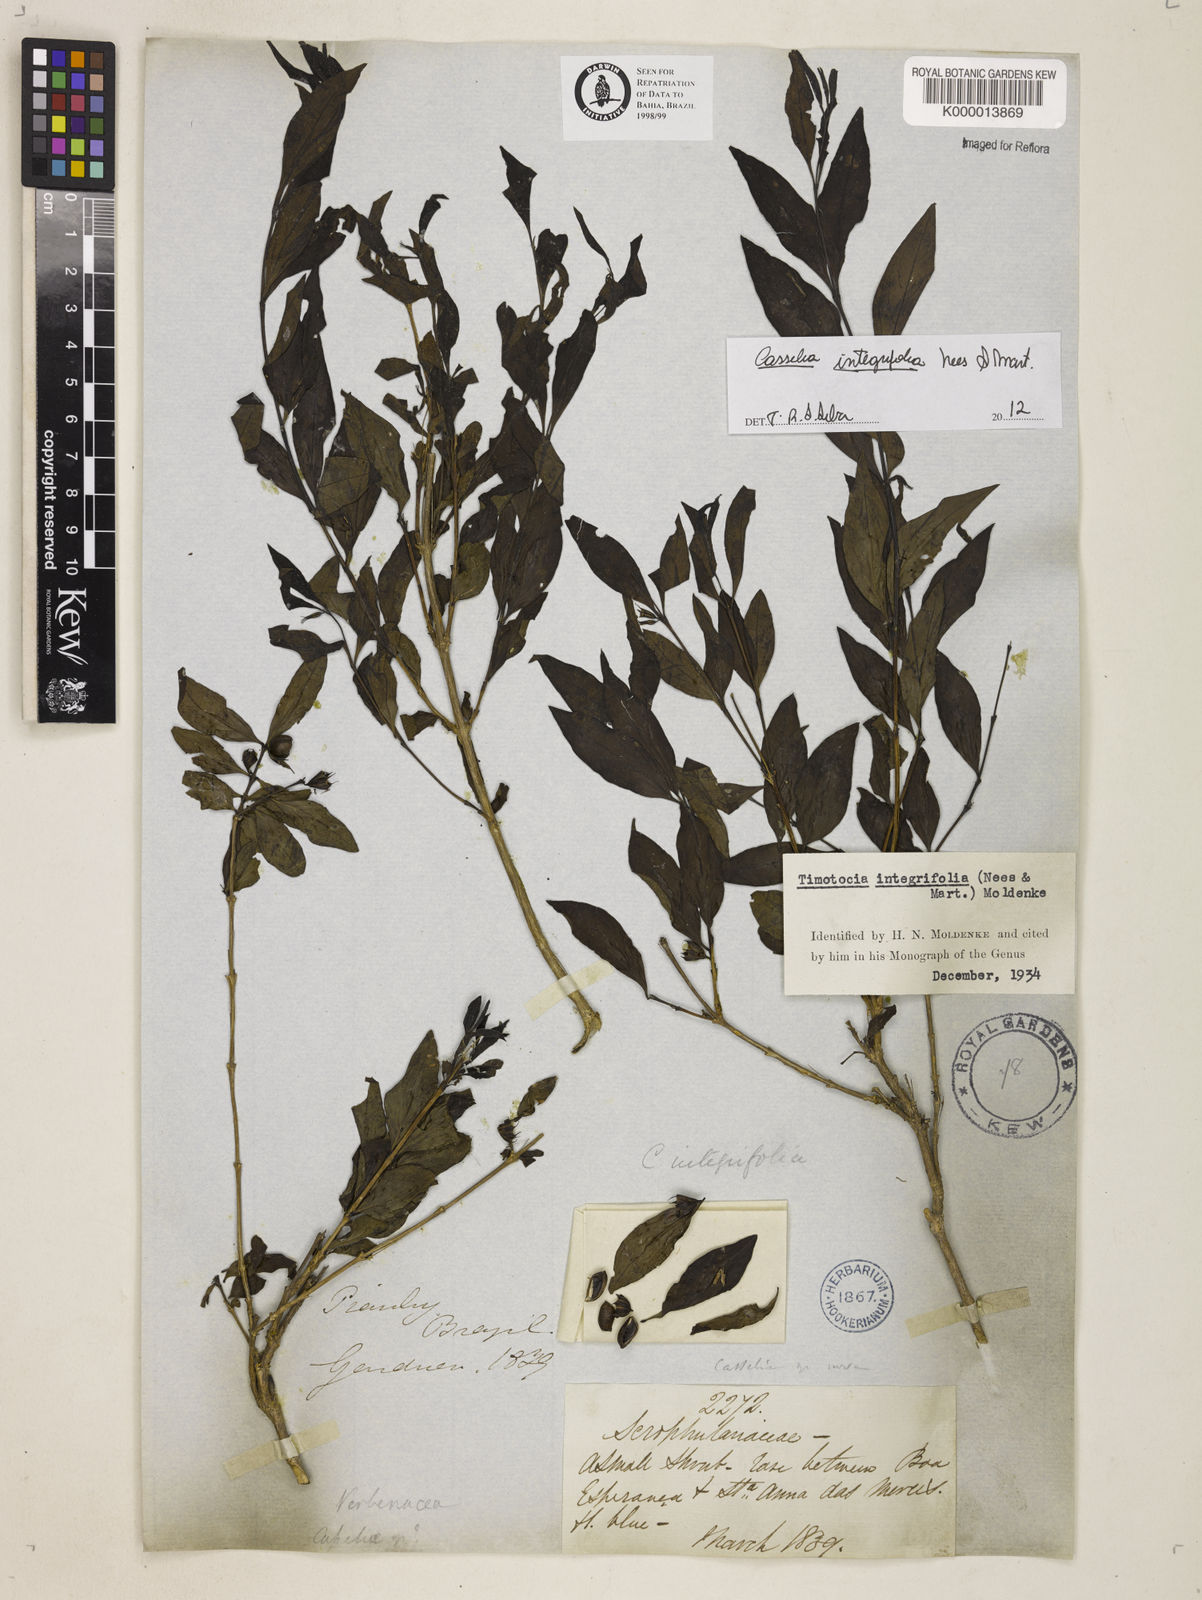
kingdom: Plantae
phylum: Tracheophyta
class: Magnoliopsida
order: Lamiales
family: Verbenaceae
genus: Casselia
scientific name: Casselia integrifolia
